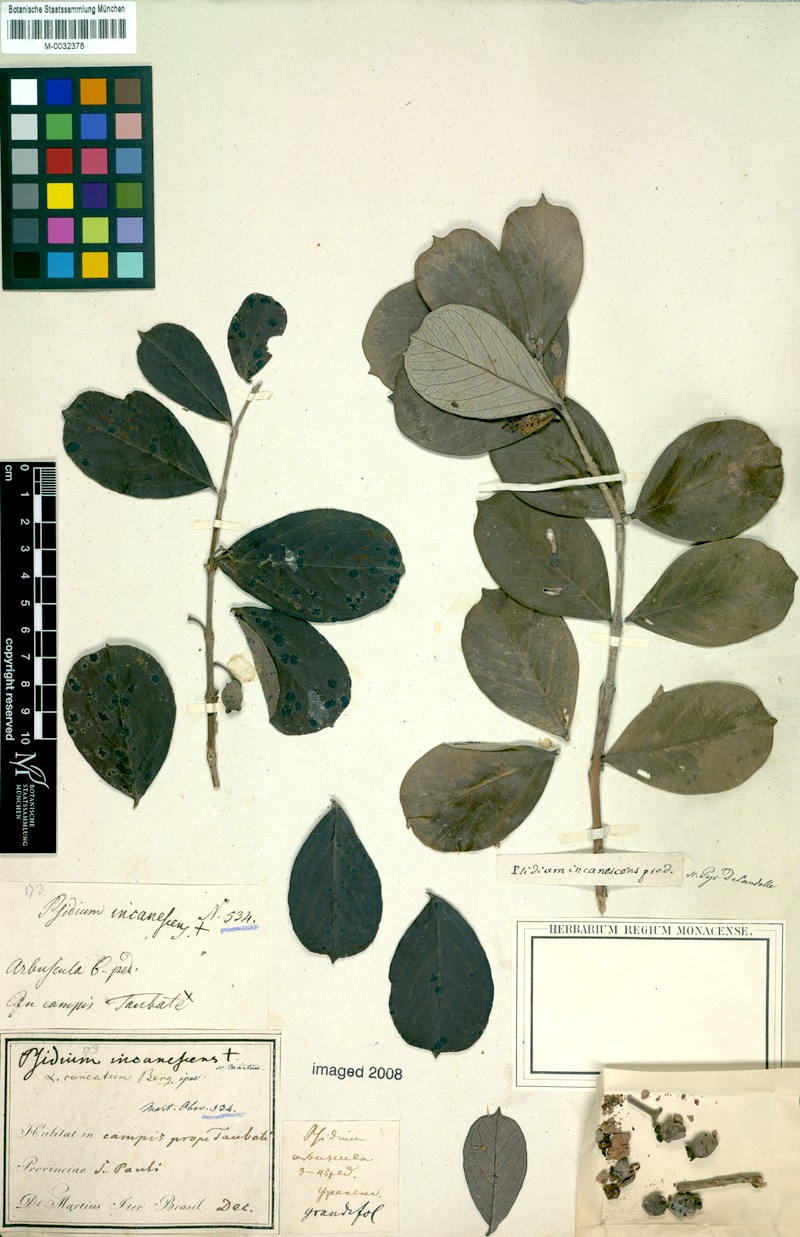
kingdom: Plantae
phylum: Tracheophyta
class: Magnoliopsida
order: Myrtales
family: Myrtaceae
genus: Psidium
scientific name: Psidium grandifolium
